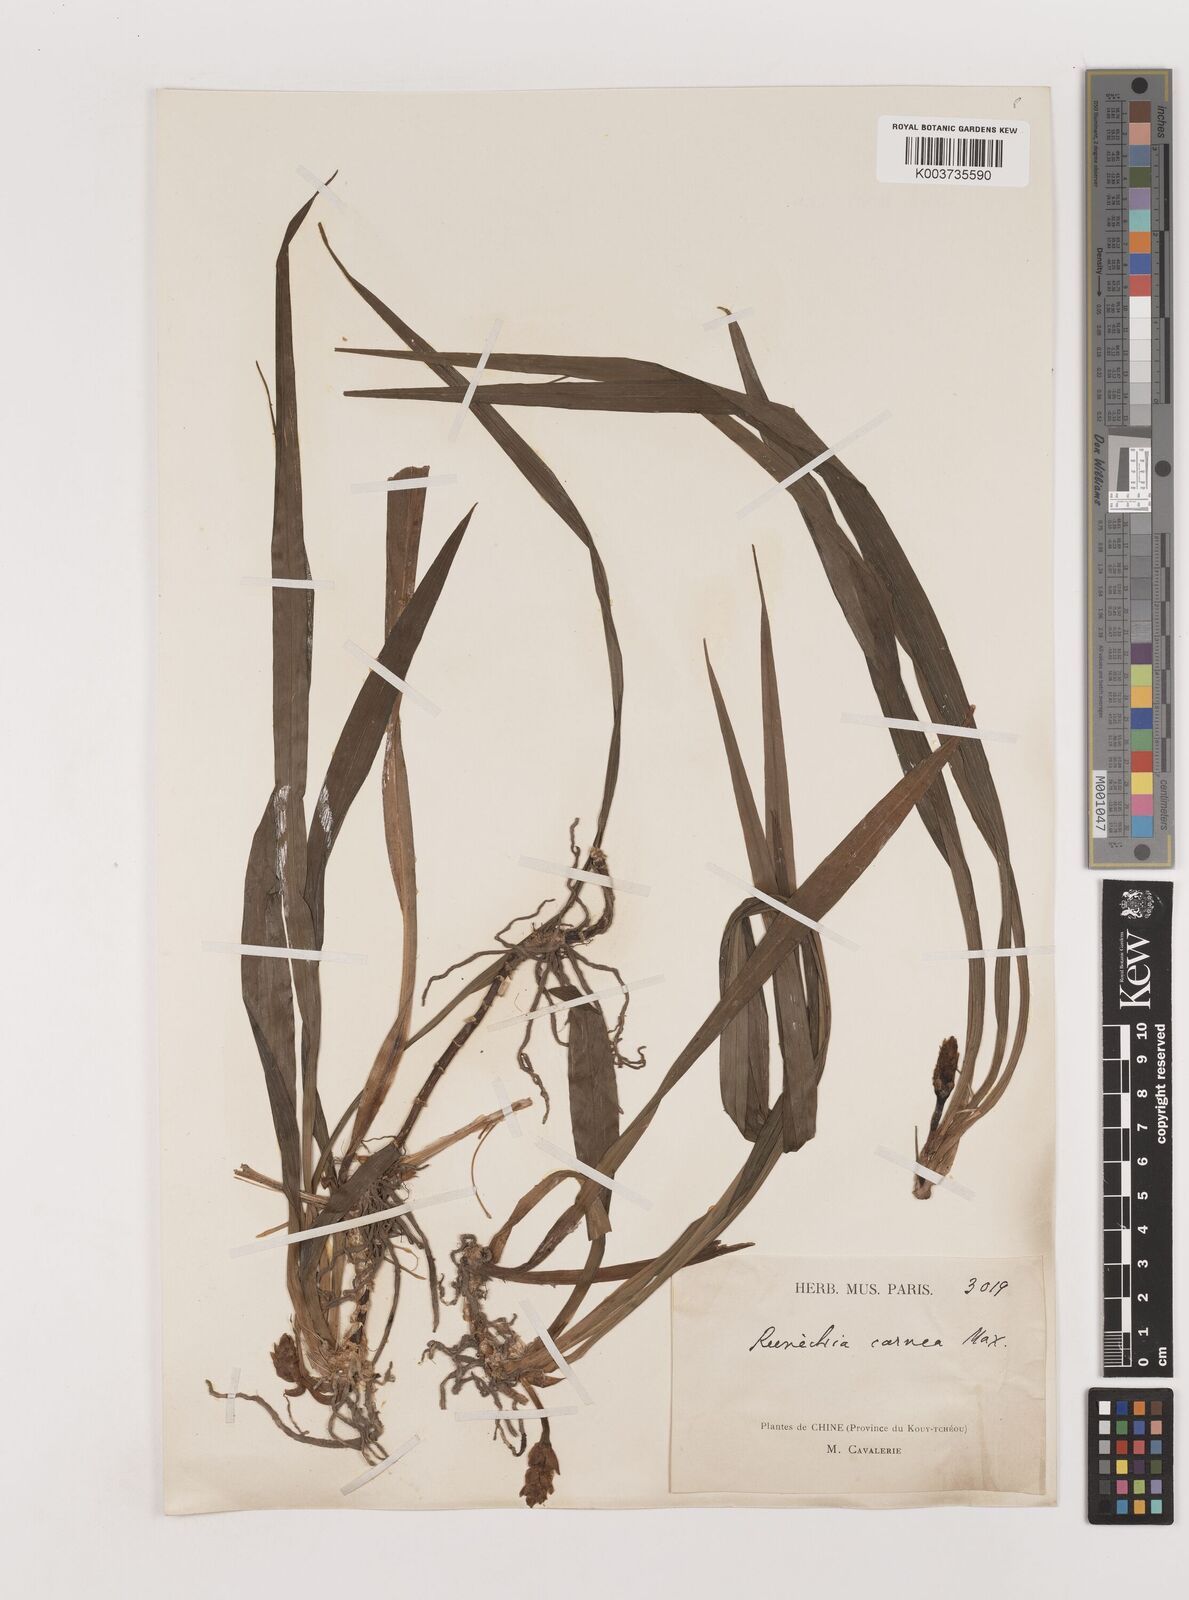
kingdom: Plantae
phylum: Tracheophyta
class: Liliopsida
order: Asparagales
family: Asparagaceae
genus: Reineckea
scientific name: Reineckea carnea
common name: Reineckea
